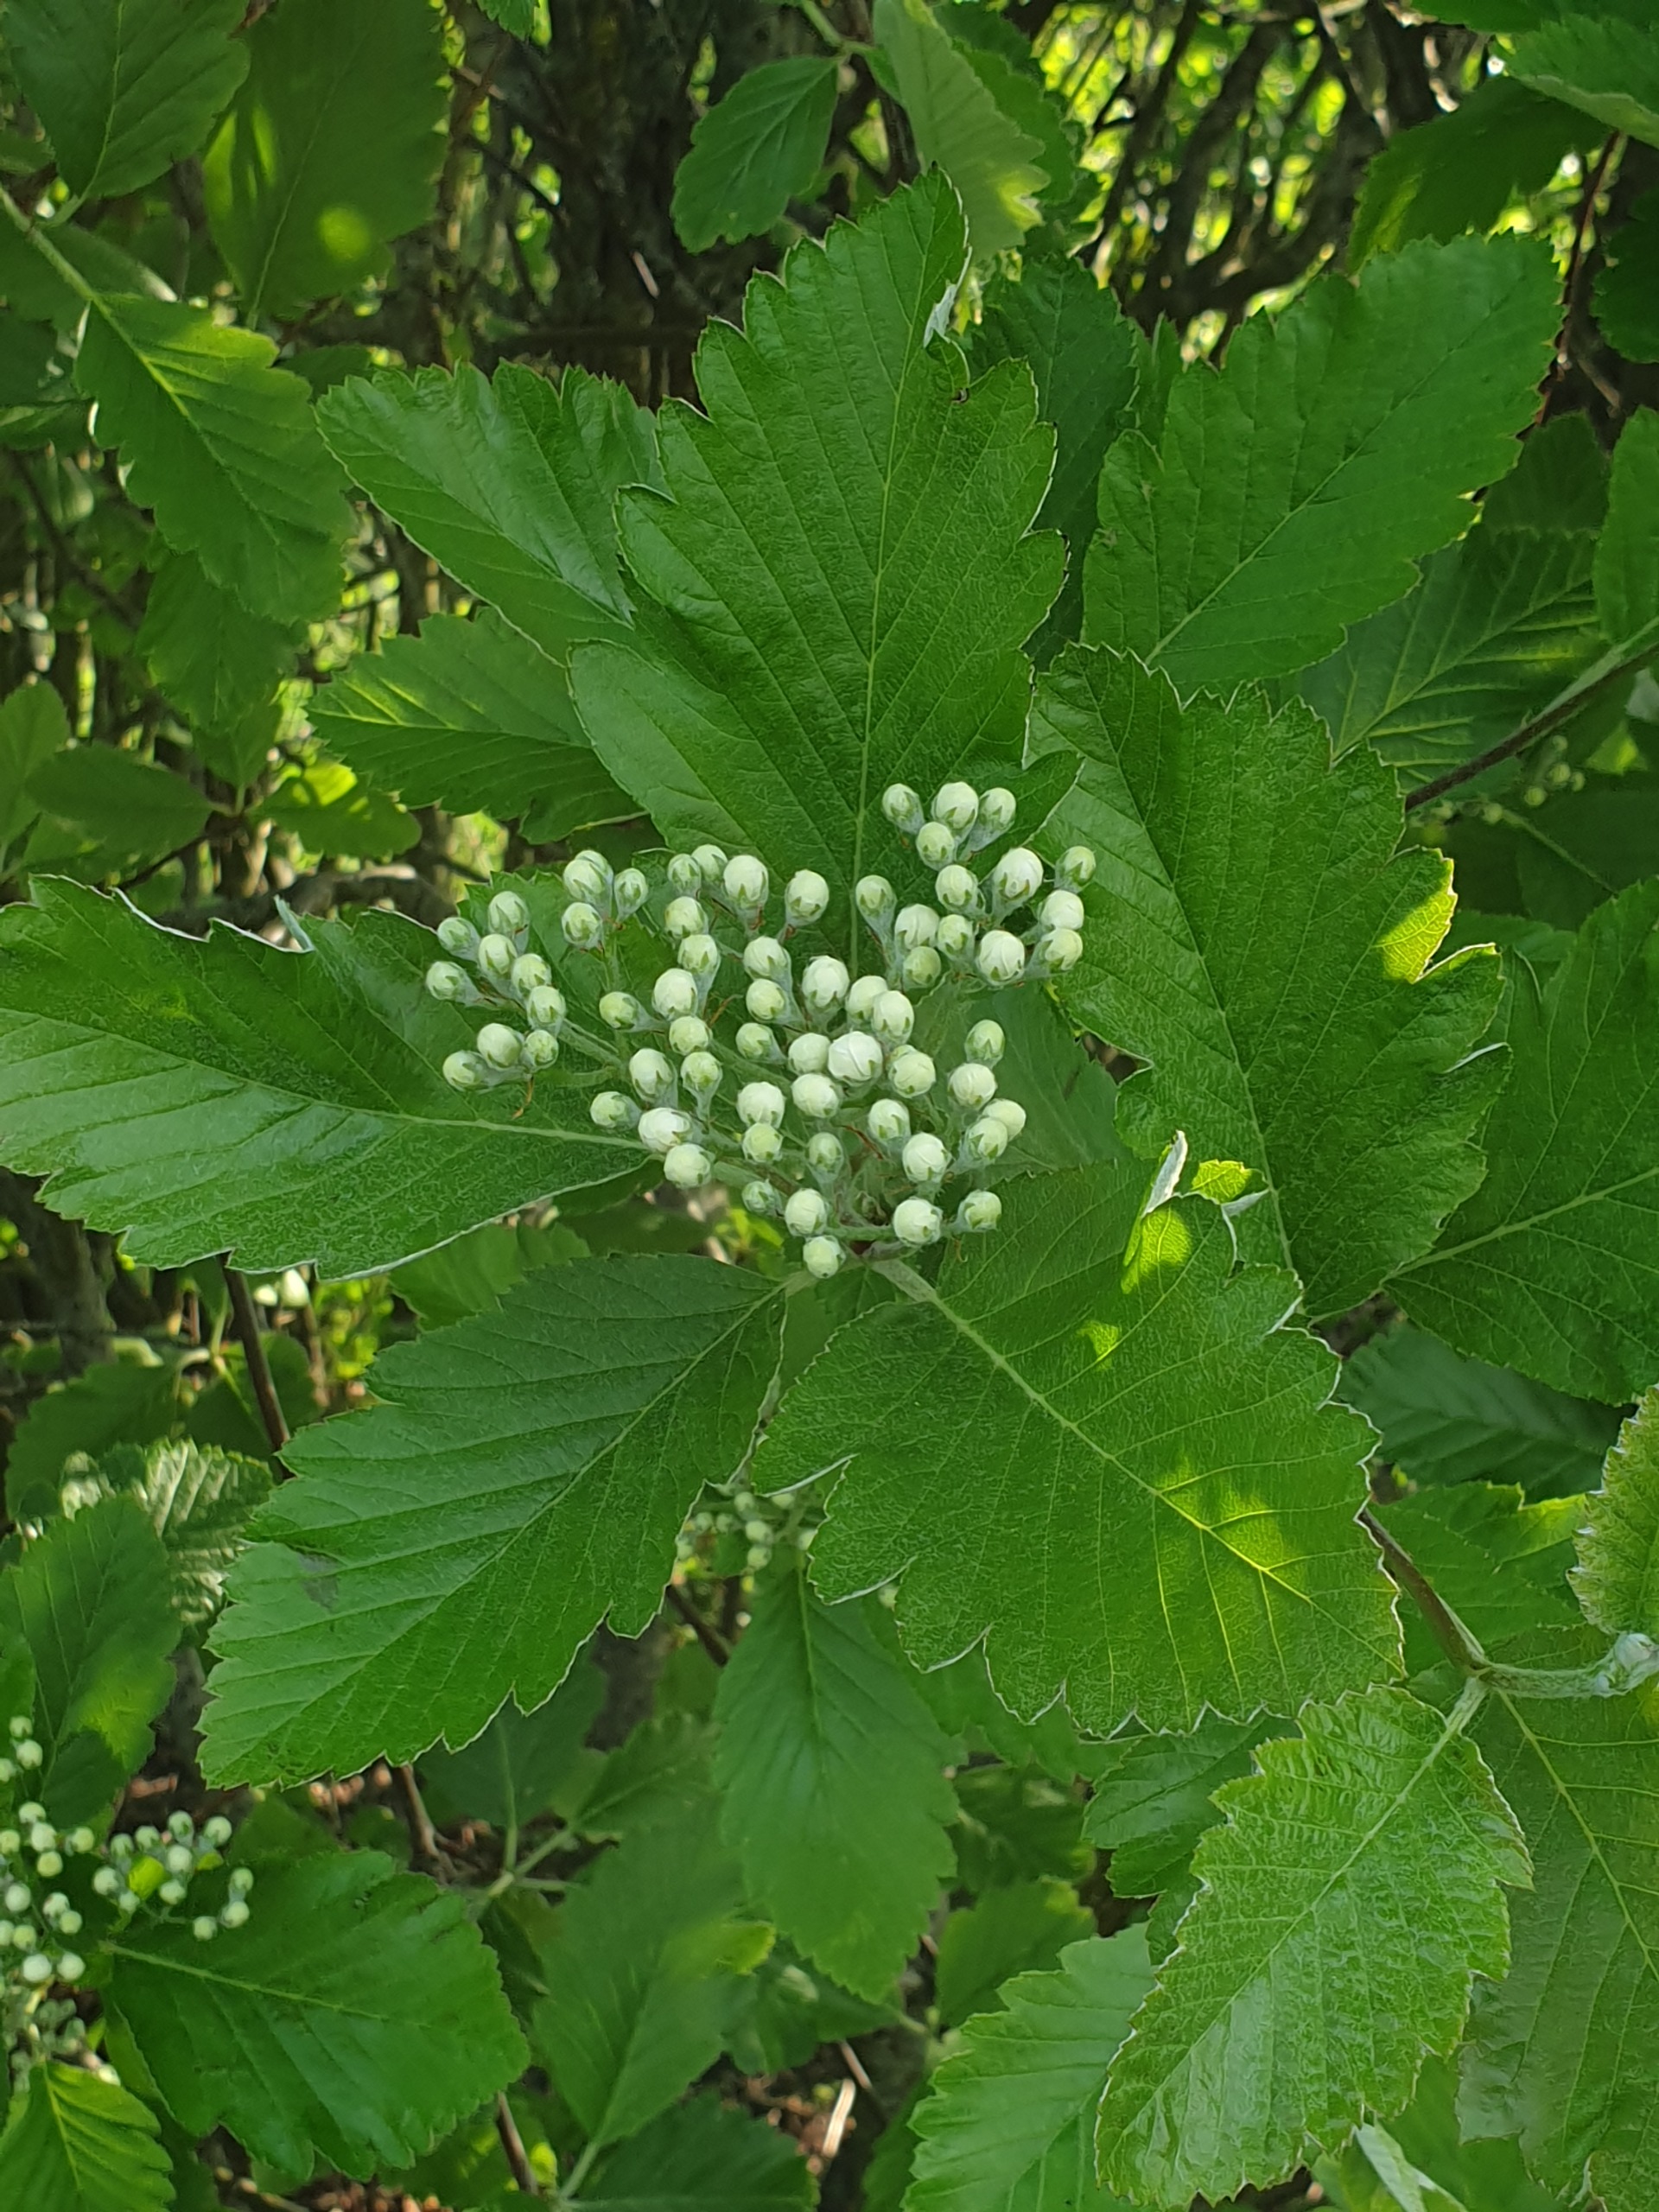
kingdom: Plantae
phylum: Tracheophyta
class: Magnoliopsida
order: Rosales
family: Rosaceae
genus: Scandosorbus
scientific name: Scandosorbus intermedia
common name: Selje-røn
